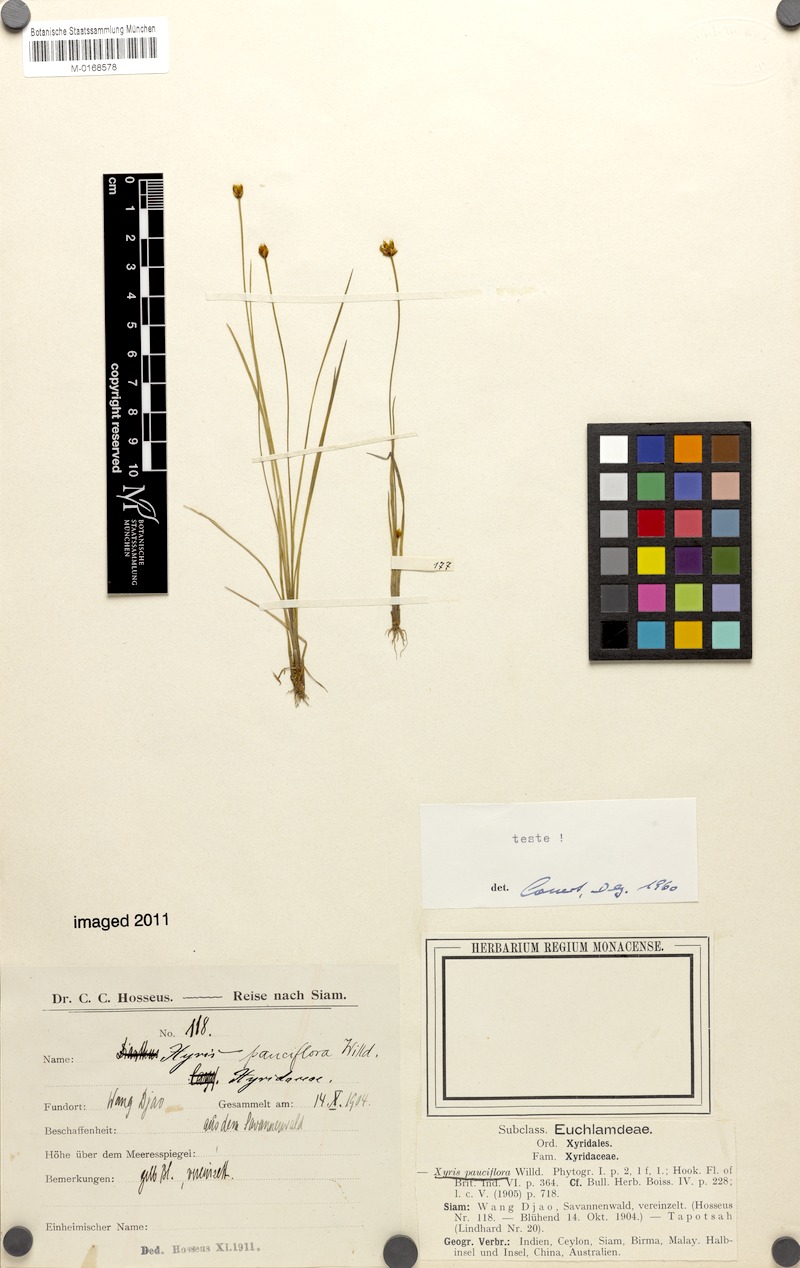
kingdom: Plantae
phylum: Tracheophyta
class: Liliopsida
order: Poales
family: Xyridaceae
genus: Xyris
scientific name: Xyris pauciflora
